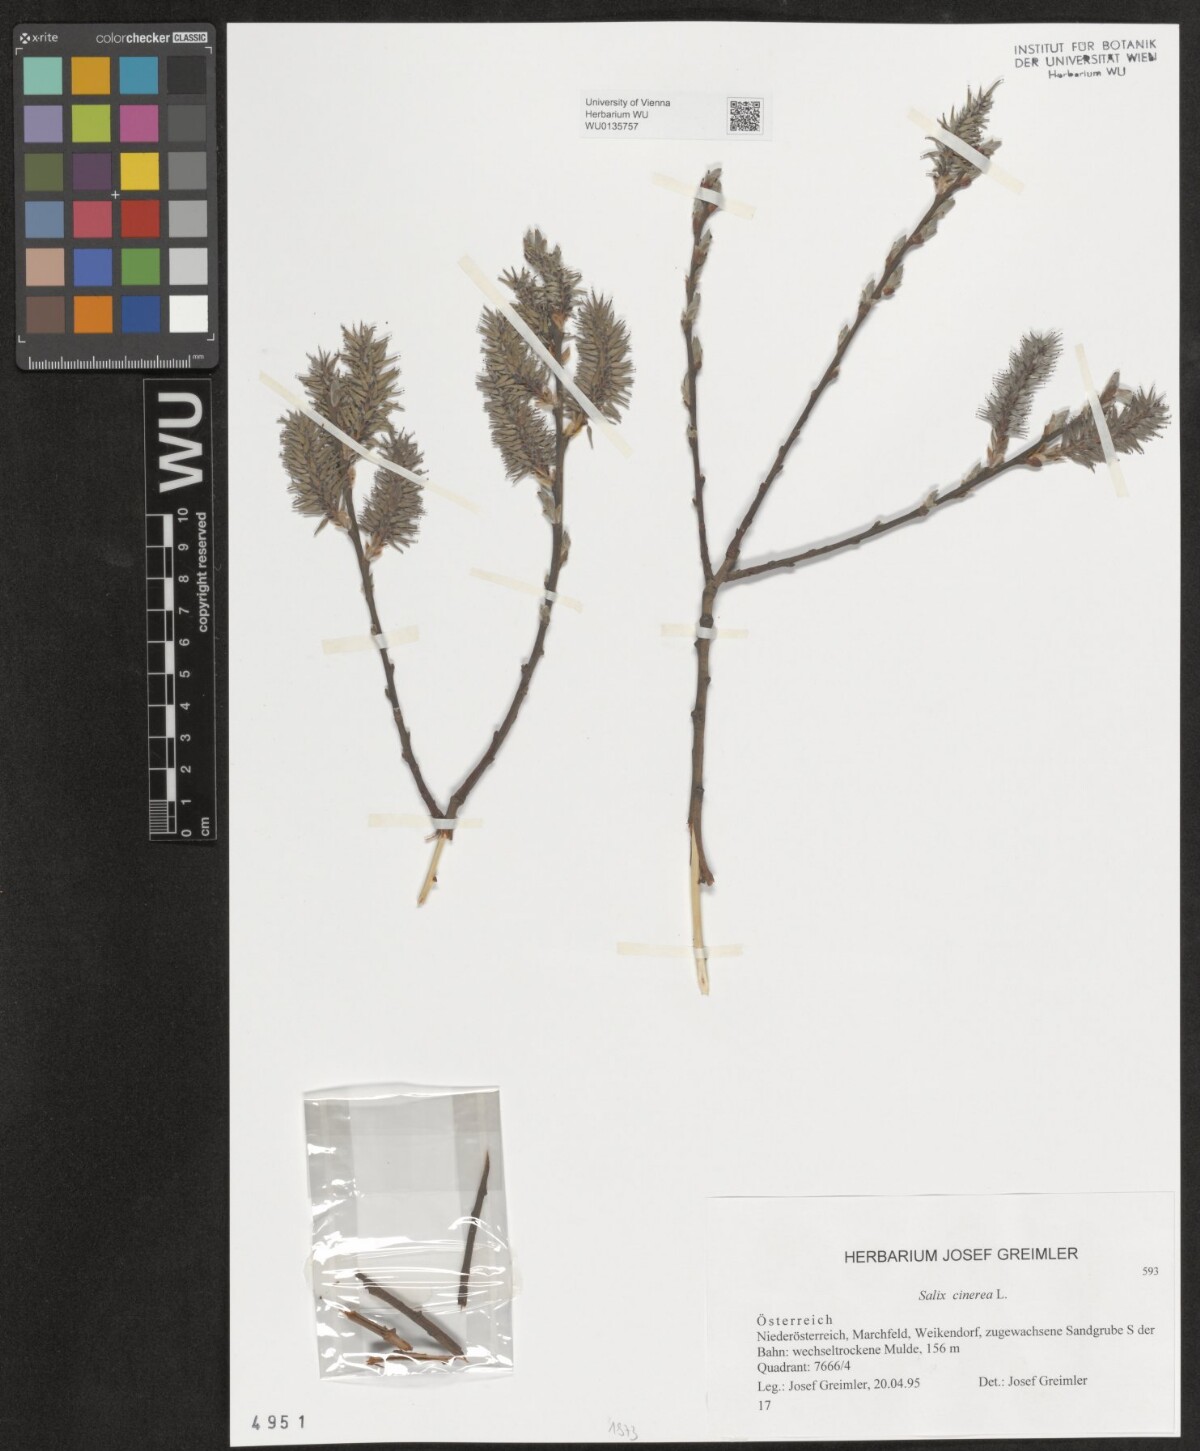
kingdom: Plantae
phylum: Tracheophyta
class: Magnoliopsida
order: Malpighiales
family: Salicaceae
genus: Salix
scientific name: Salix cinerea
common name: Common sallow
